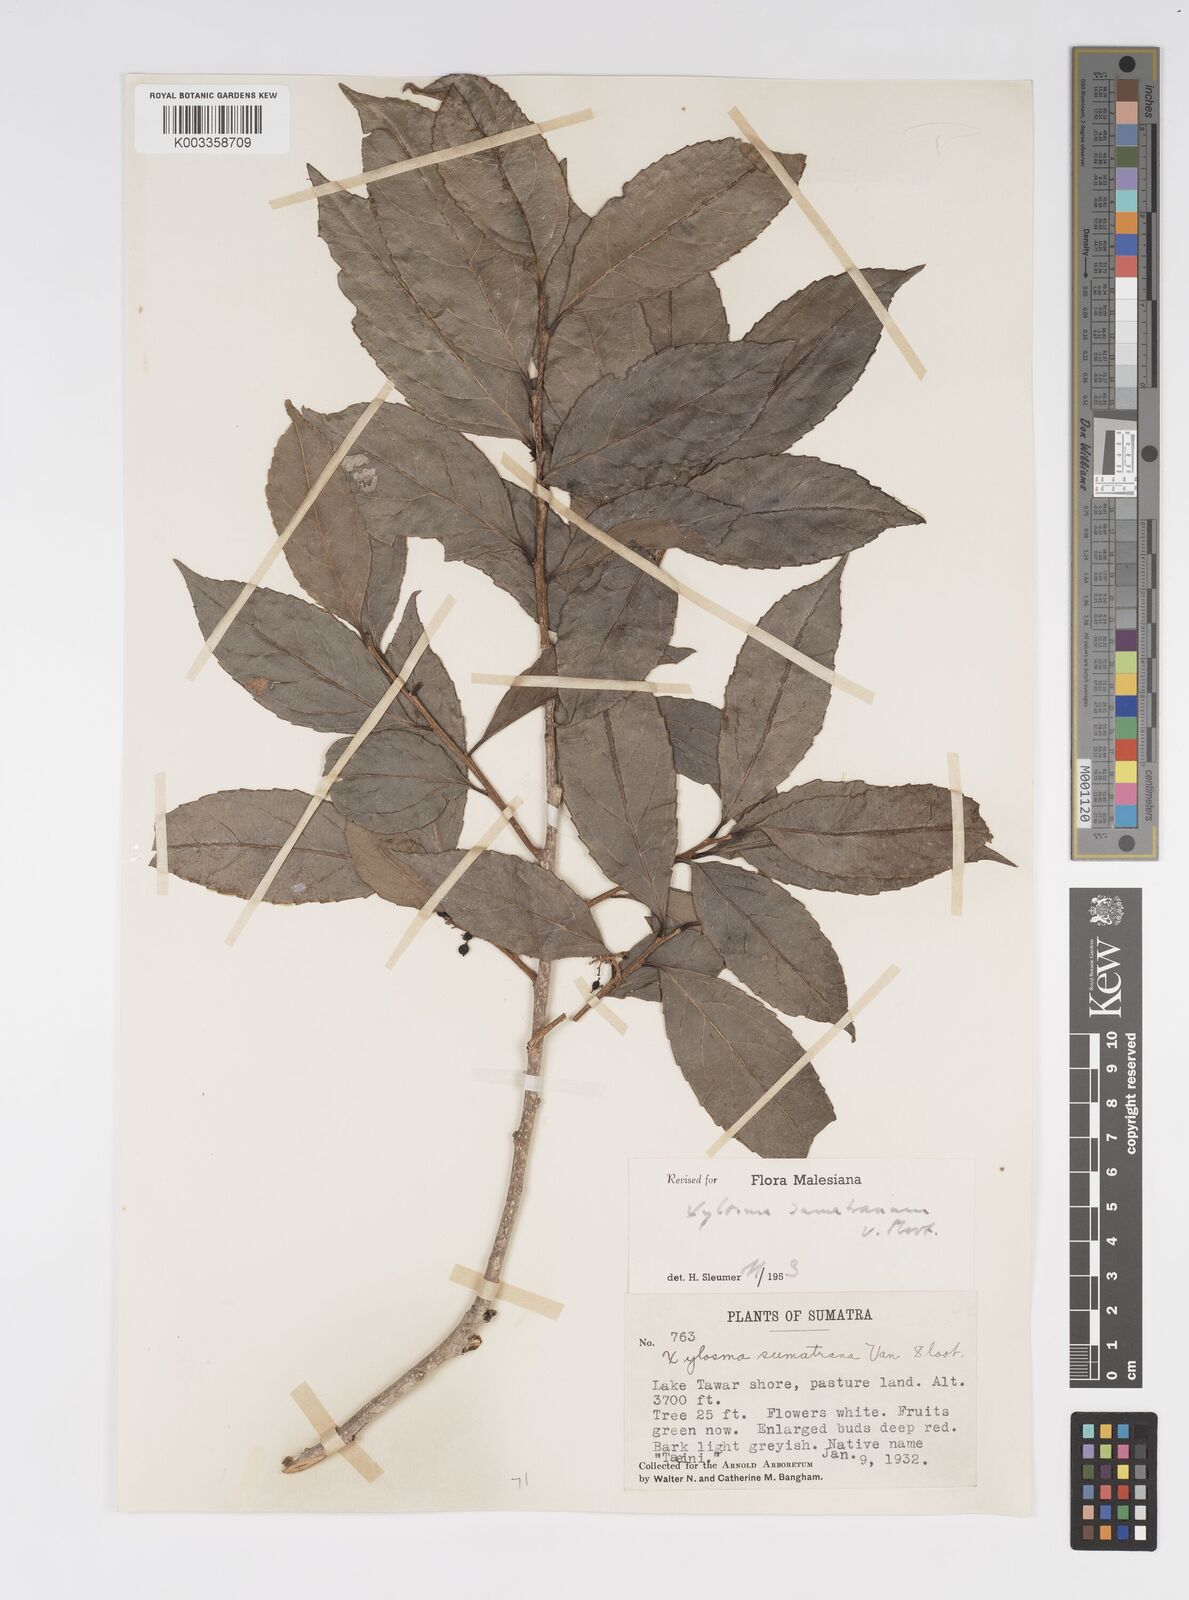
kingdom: Plantae
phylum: Tracheophyta
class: Magnoliopsida
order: Malpighiales
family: Salicaceae
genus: Xylosma
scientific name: Xylosma sumatrana
